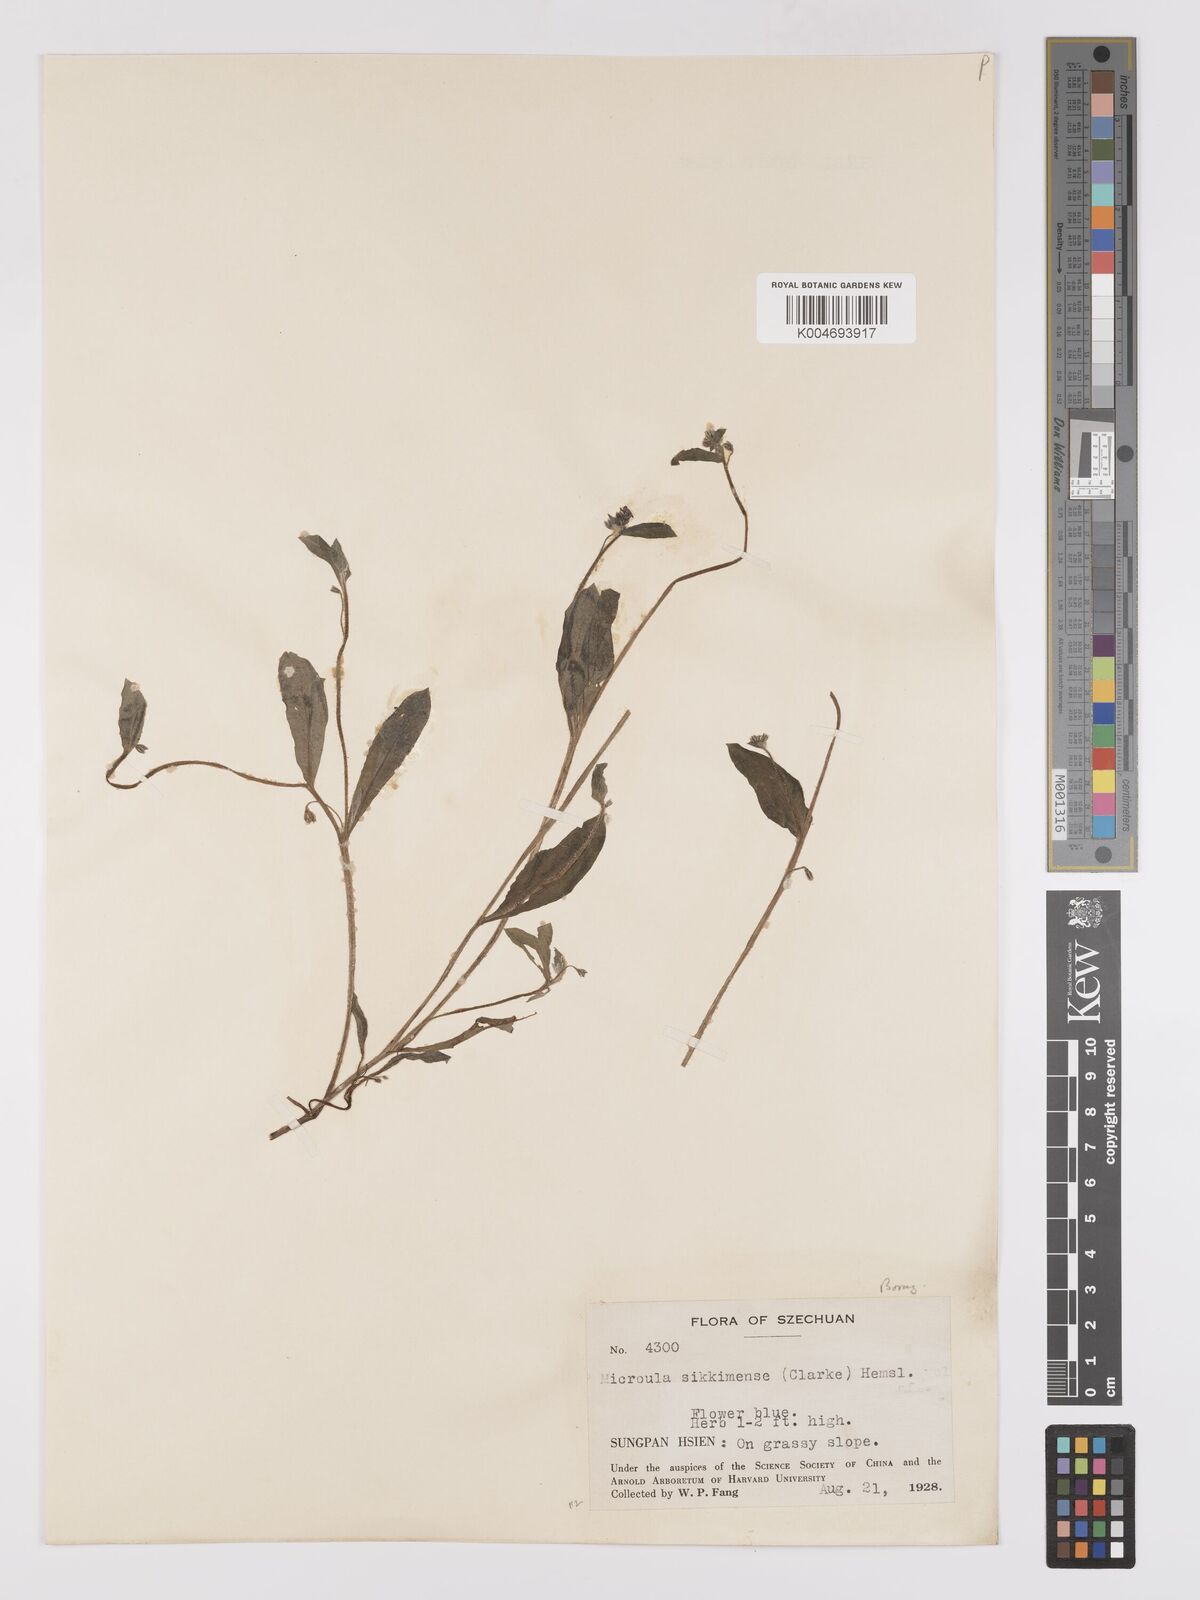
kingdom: Plantae
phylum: Tracheophyta
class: Magnoliopsida
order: Boraginales
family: Boraginaceae
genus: Microula
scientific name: Microula sikkimensis
